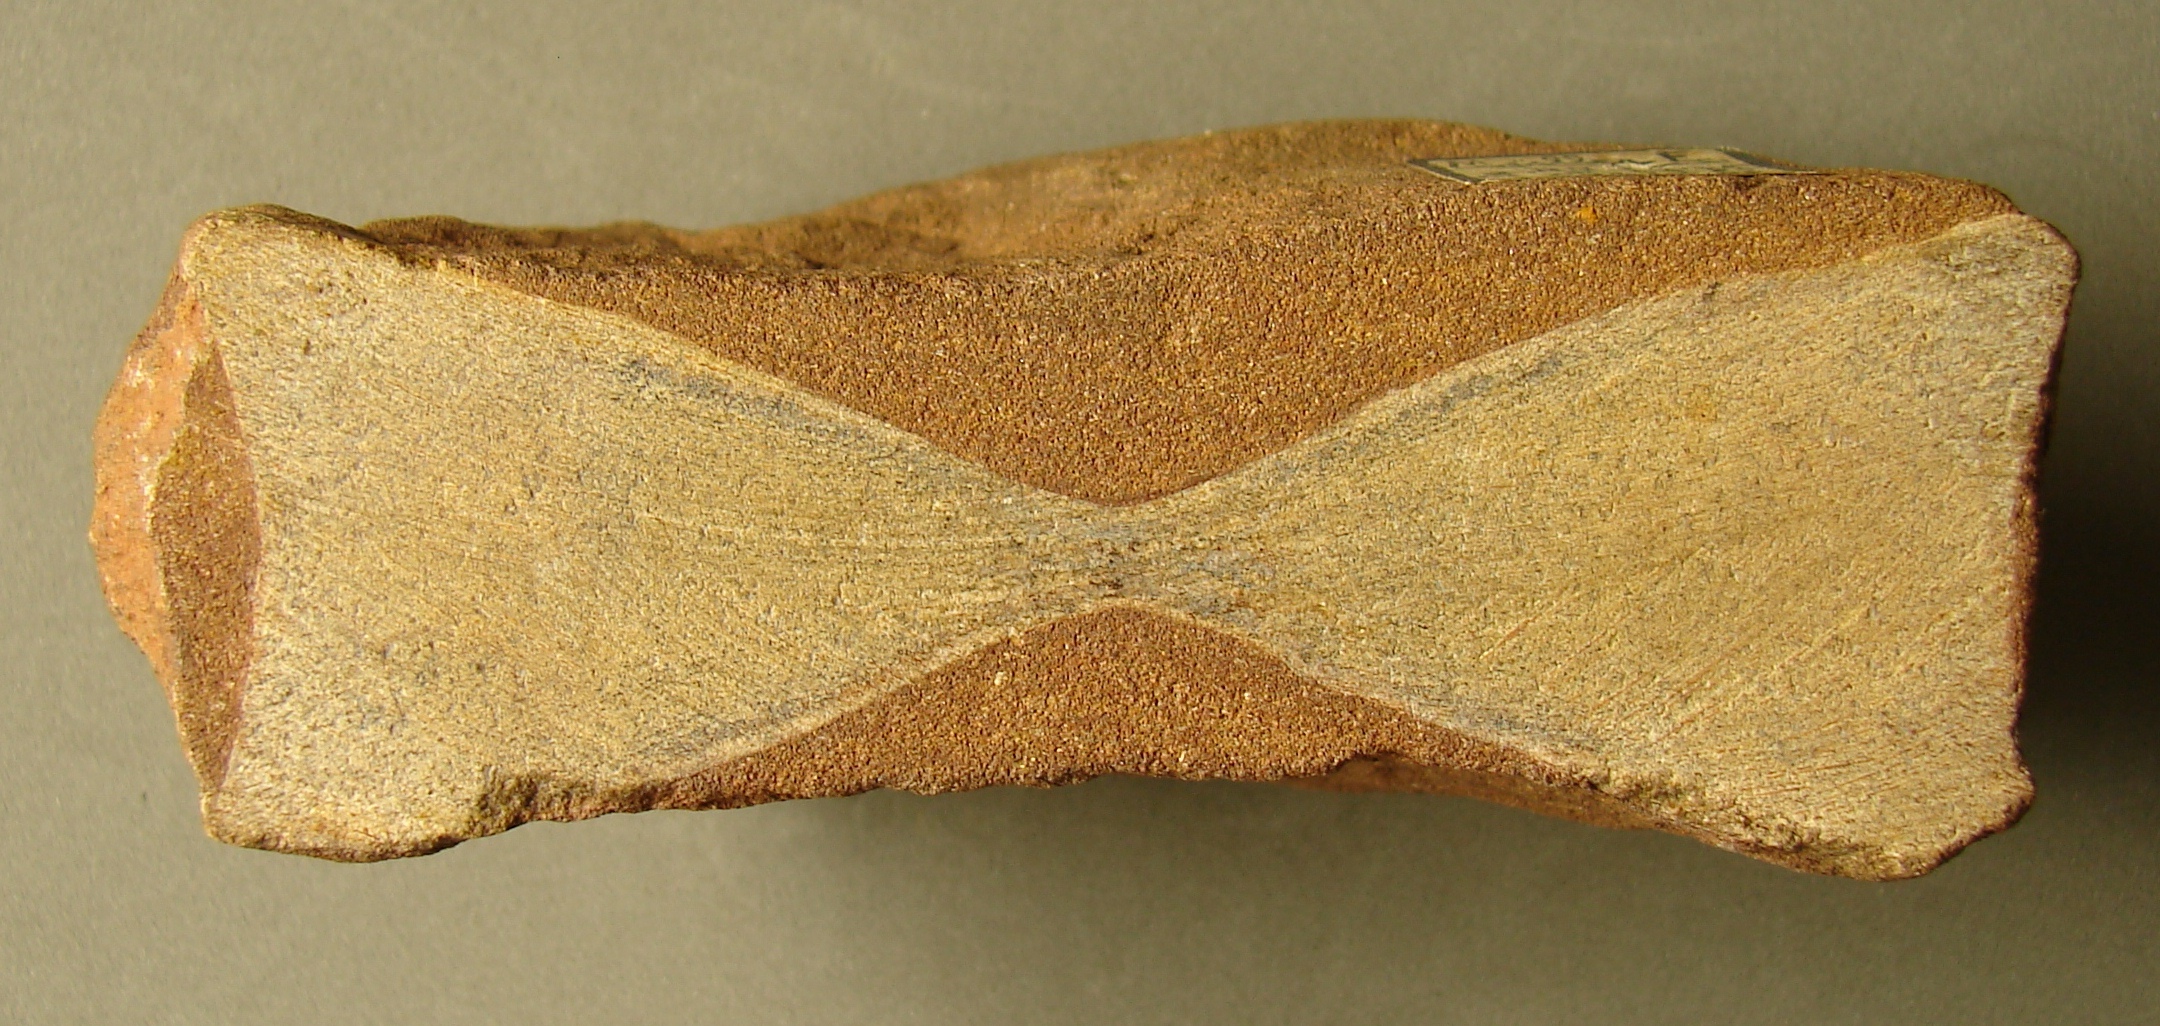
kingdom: Animalia
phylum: Chordata
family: Ichthyosauridae
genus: Ichthyosaurus
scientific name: Ichthyosaurus
